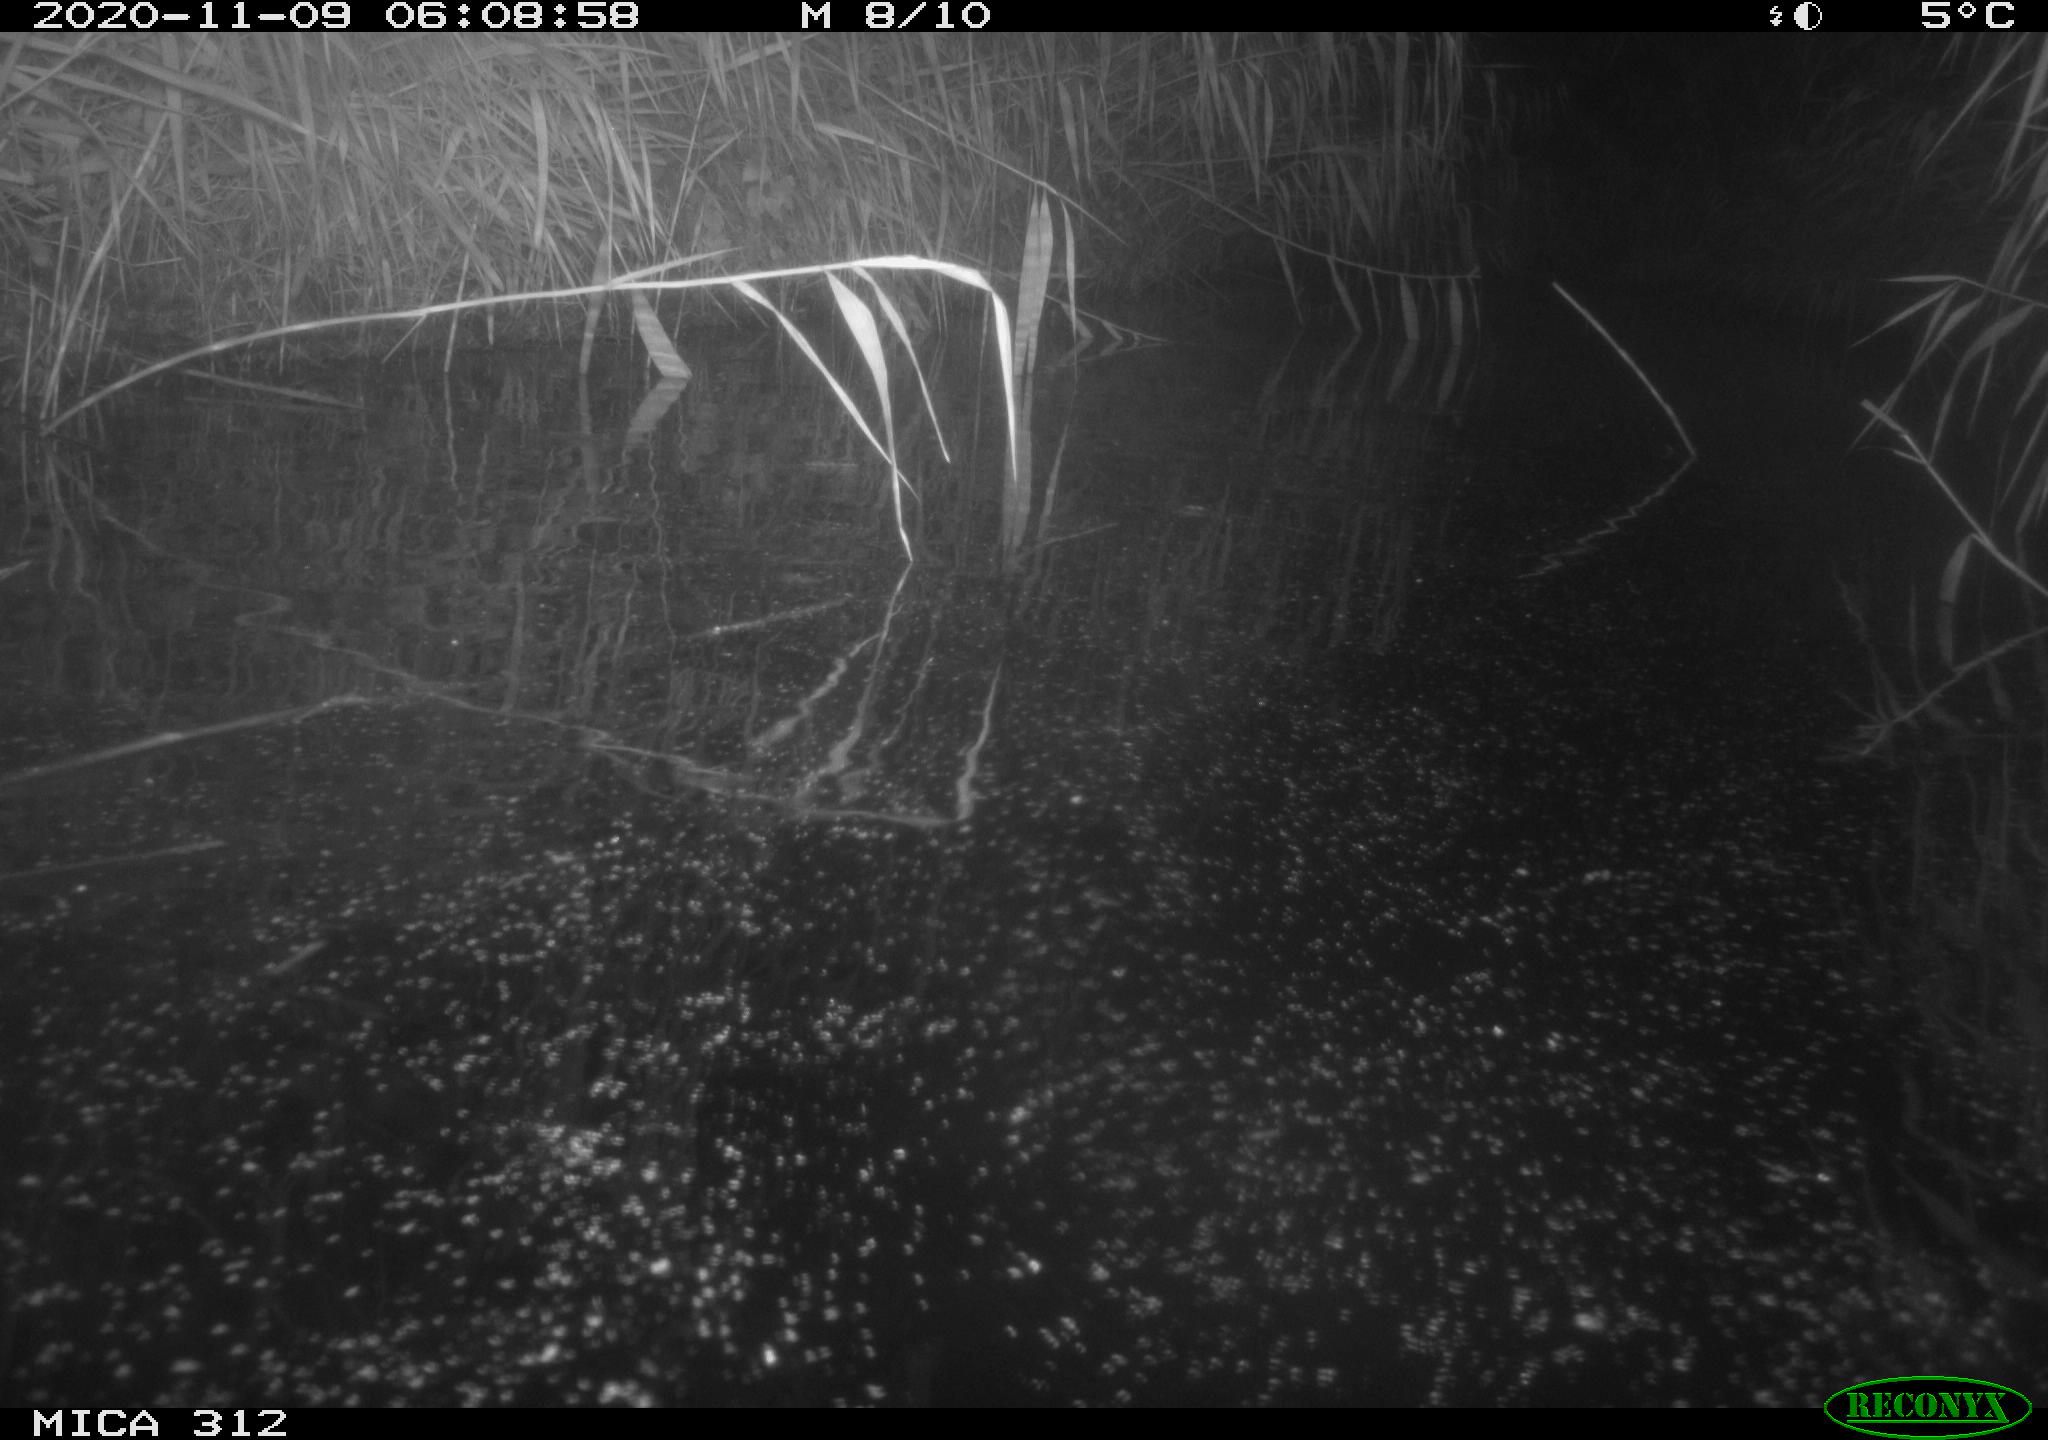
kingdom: Animalia
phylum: Chordata
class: Mammalia
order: Rodentia
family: Muridae
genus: Rattus
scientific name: Rattus norvegicus
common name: Brown rat
